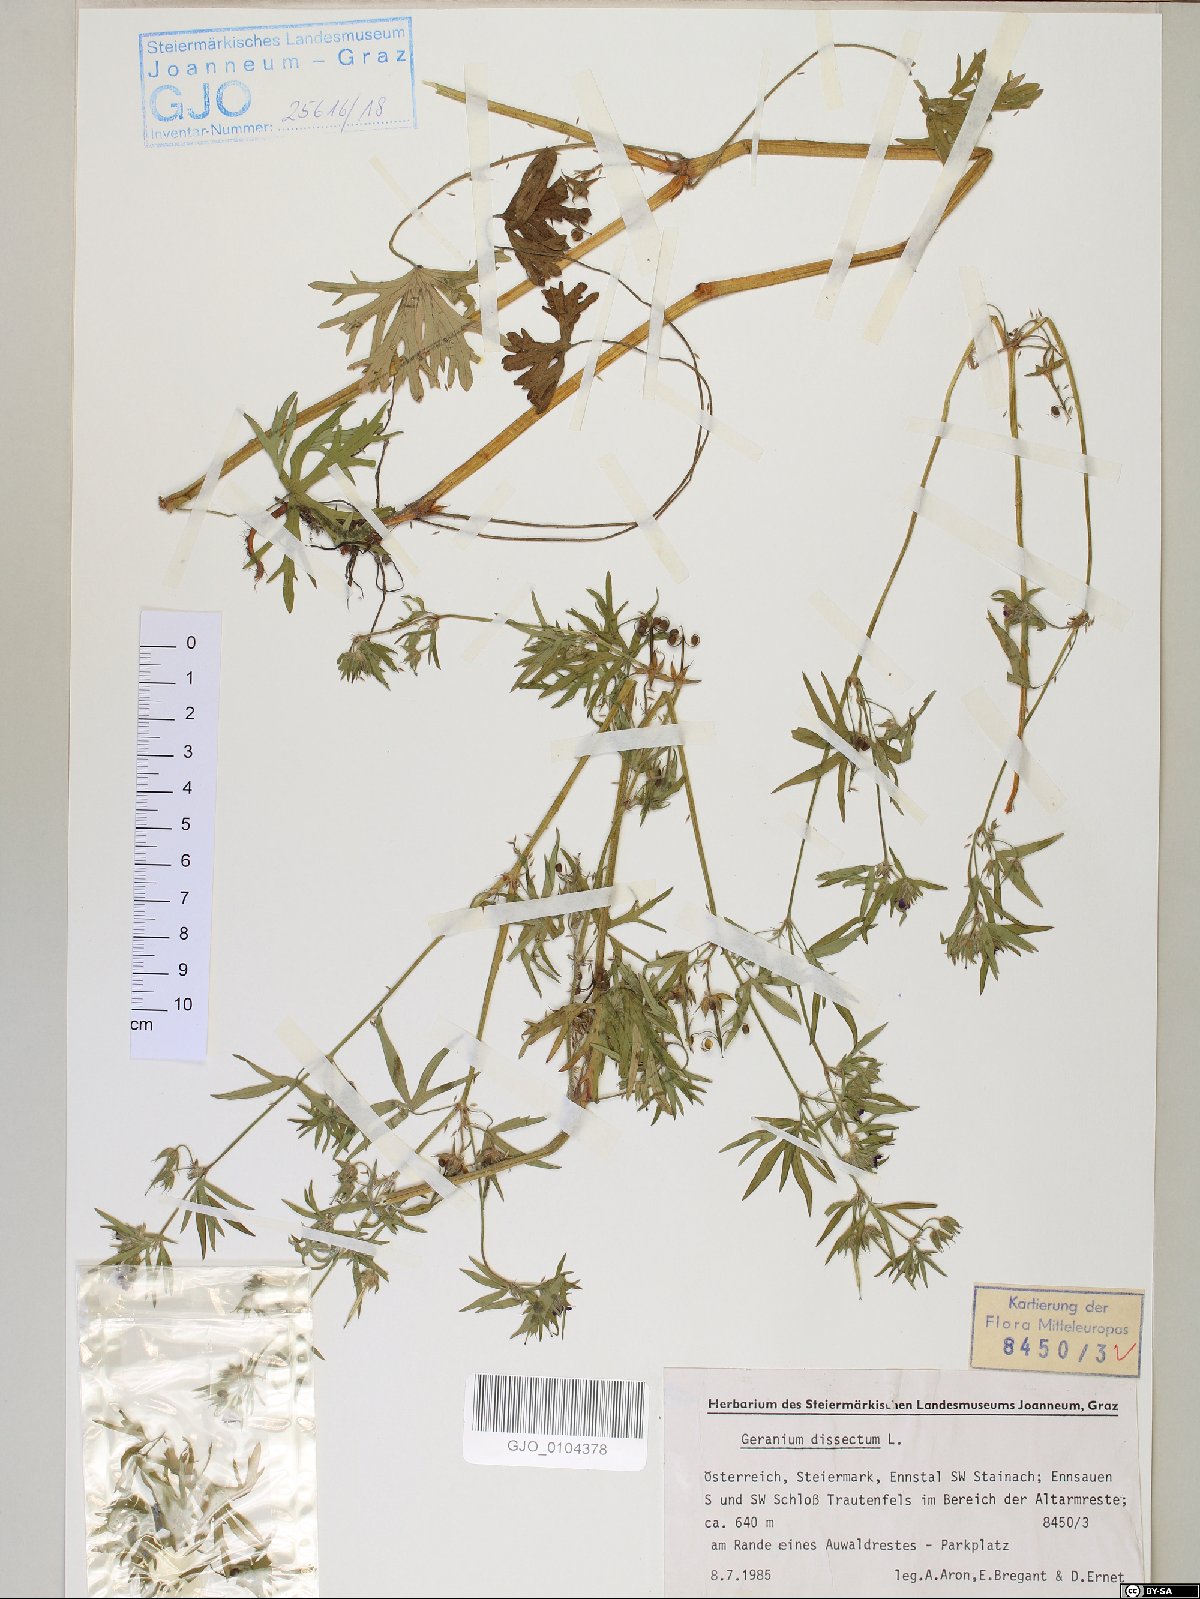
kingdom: Plantae
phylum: Tracheophyta
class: Magnoliopsida
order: Geraniales
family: Geraniaceae
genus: Geranium
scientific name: Geranium dissectum
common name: Cut-leaved crane's-bill
